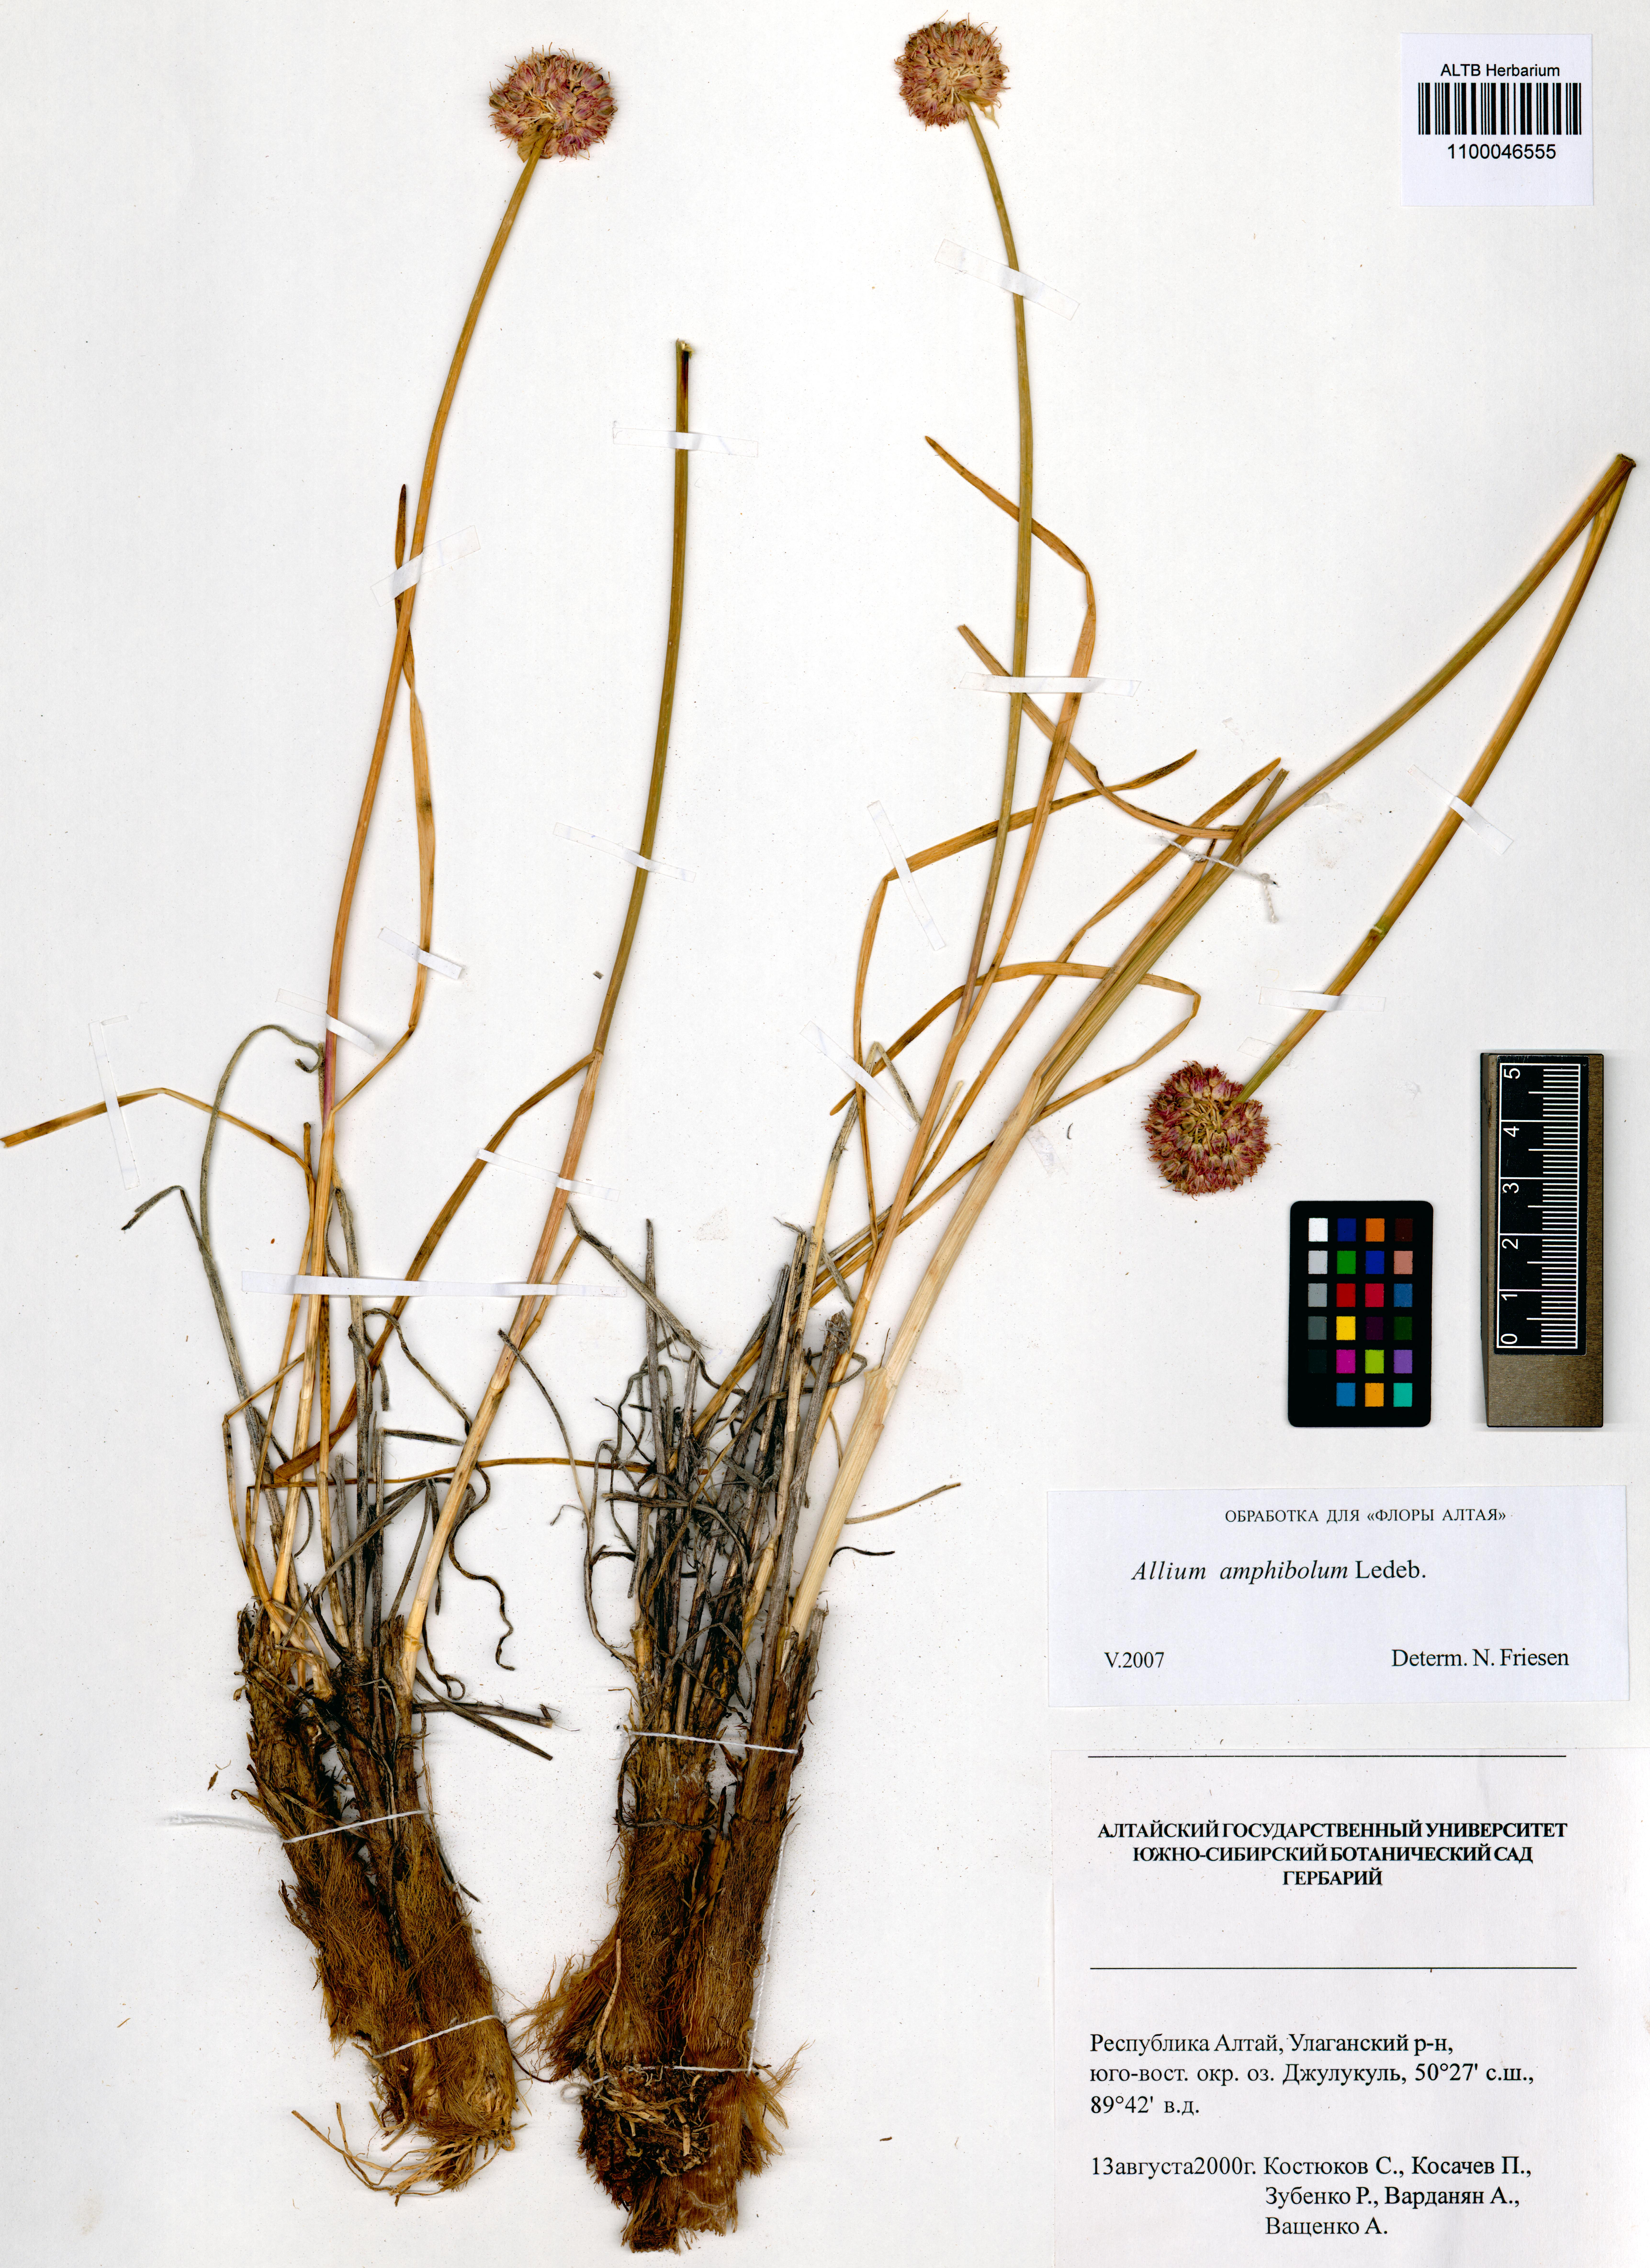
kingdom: Plantae
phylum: Tracheophyta
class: Liliopsida
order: Asparagales
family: Amaryllidaceae
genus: Allium
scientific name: Allium amphibolum
